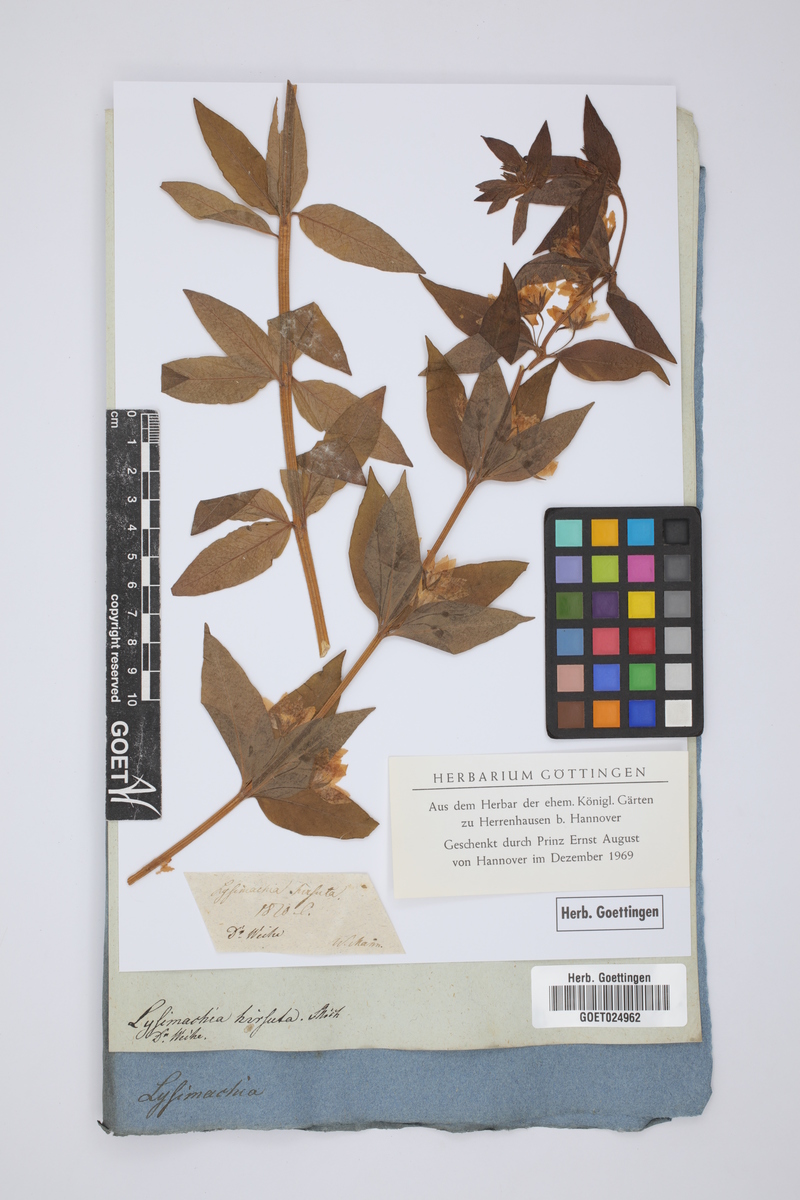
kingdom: Plantae
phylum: Tracheophyta
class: Magnoliopsida
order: Ericales
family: Primulaceae
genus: Lysimachia
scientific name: Lysimachia quadrifolia
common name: Whorled loosestrife
